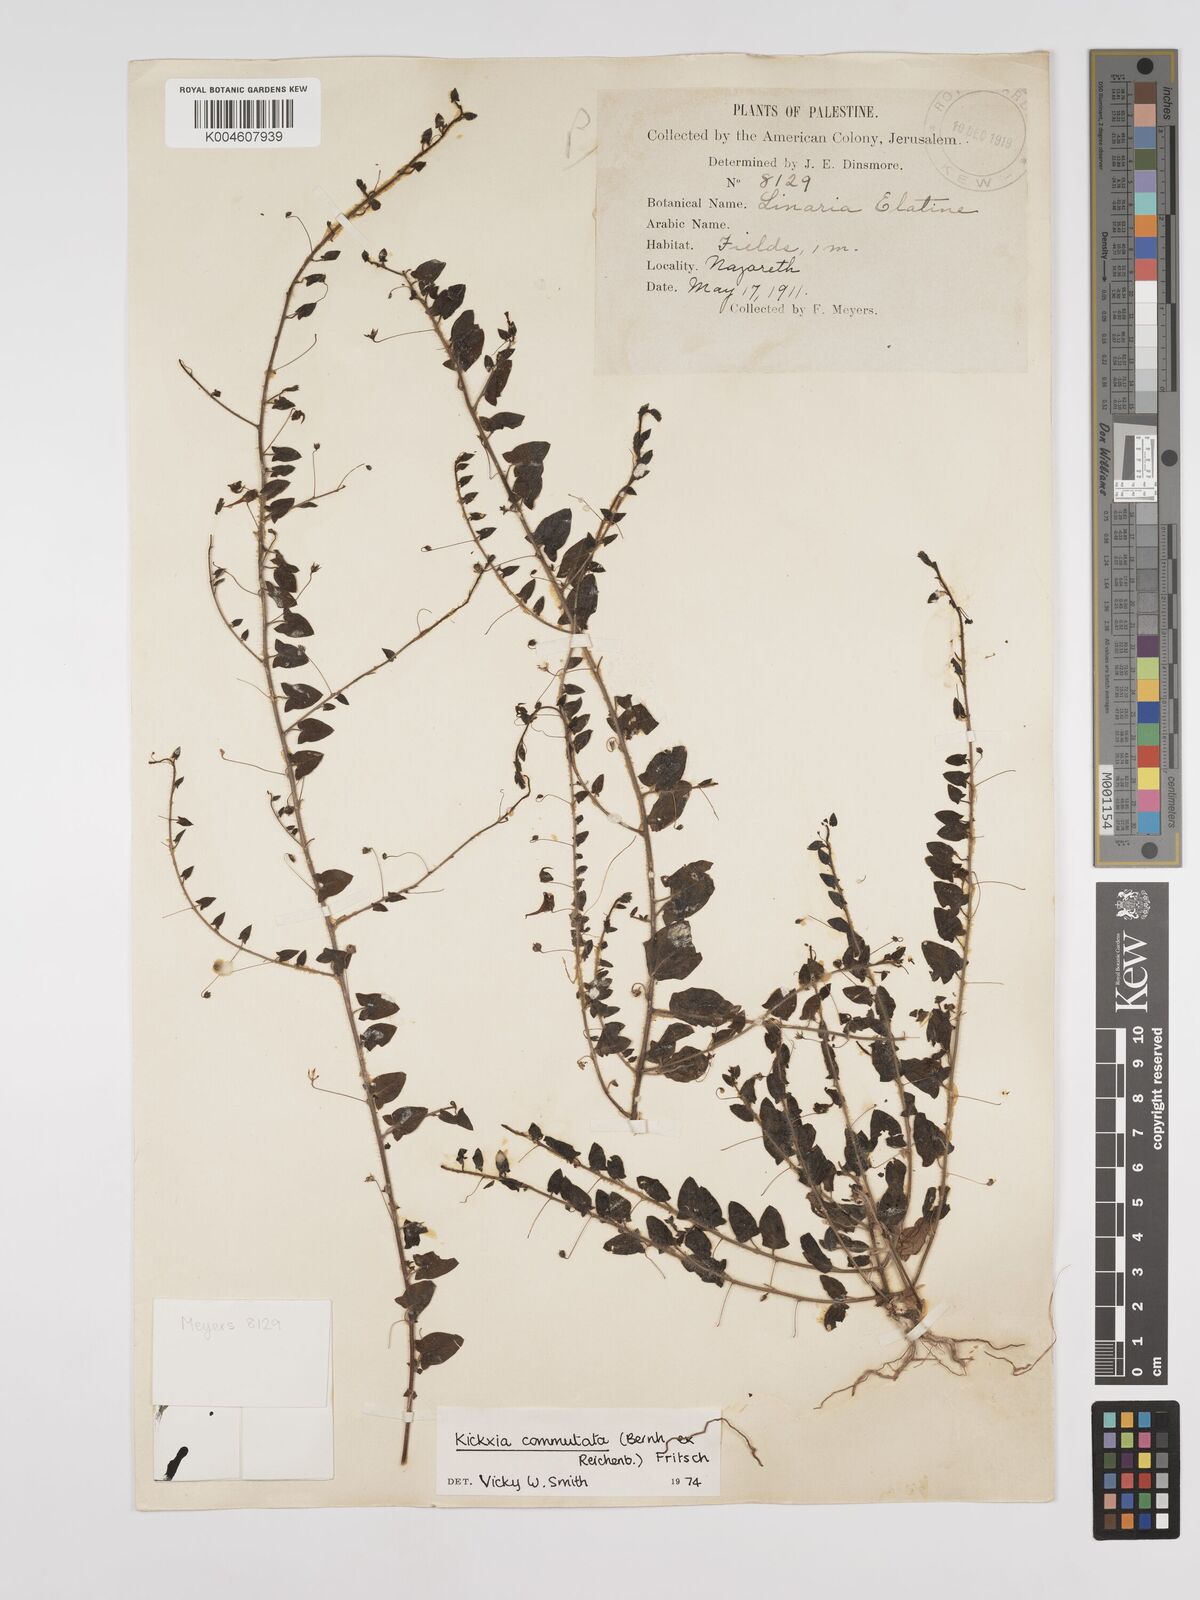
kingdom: Plantae
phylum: Tracheophyta
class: Magnoliopsida
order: Lamiales
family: Plantaginaceae
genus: Kickxia
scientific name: Kickxia commutata
